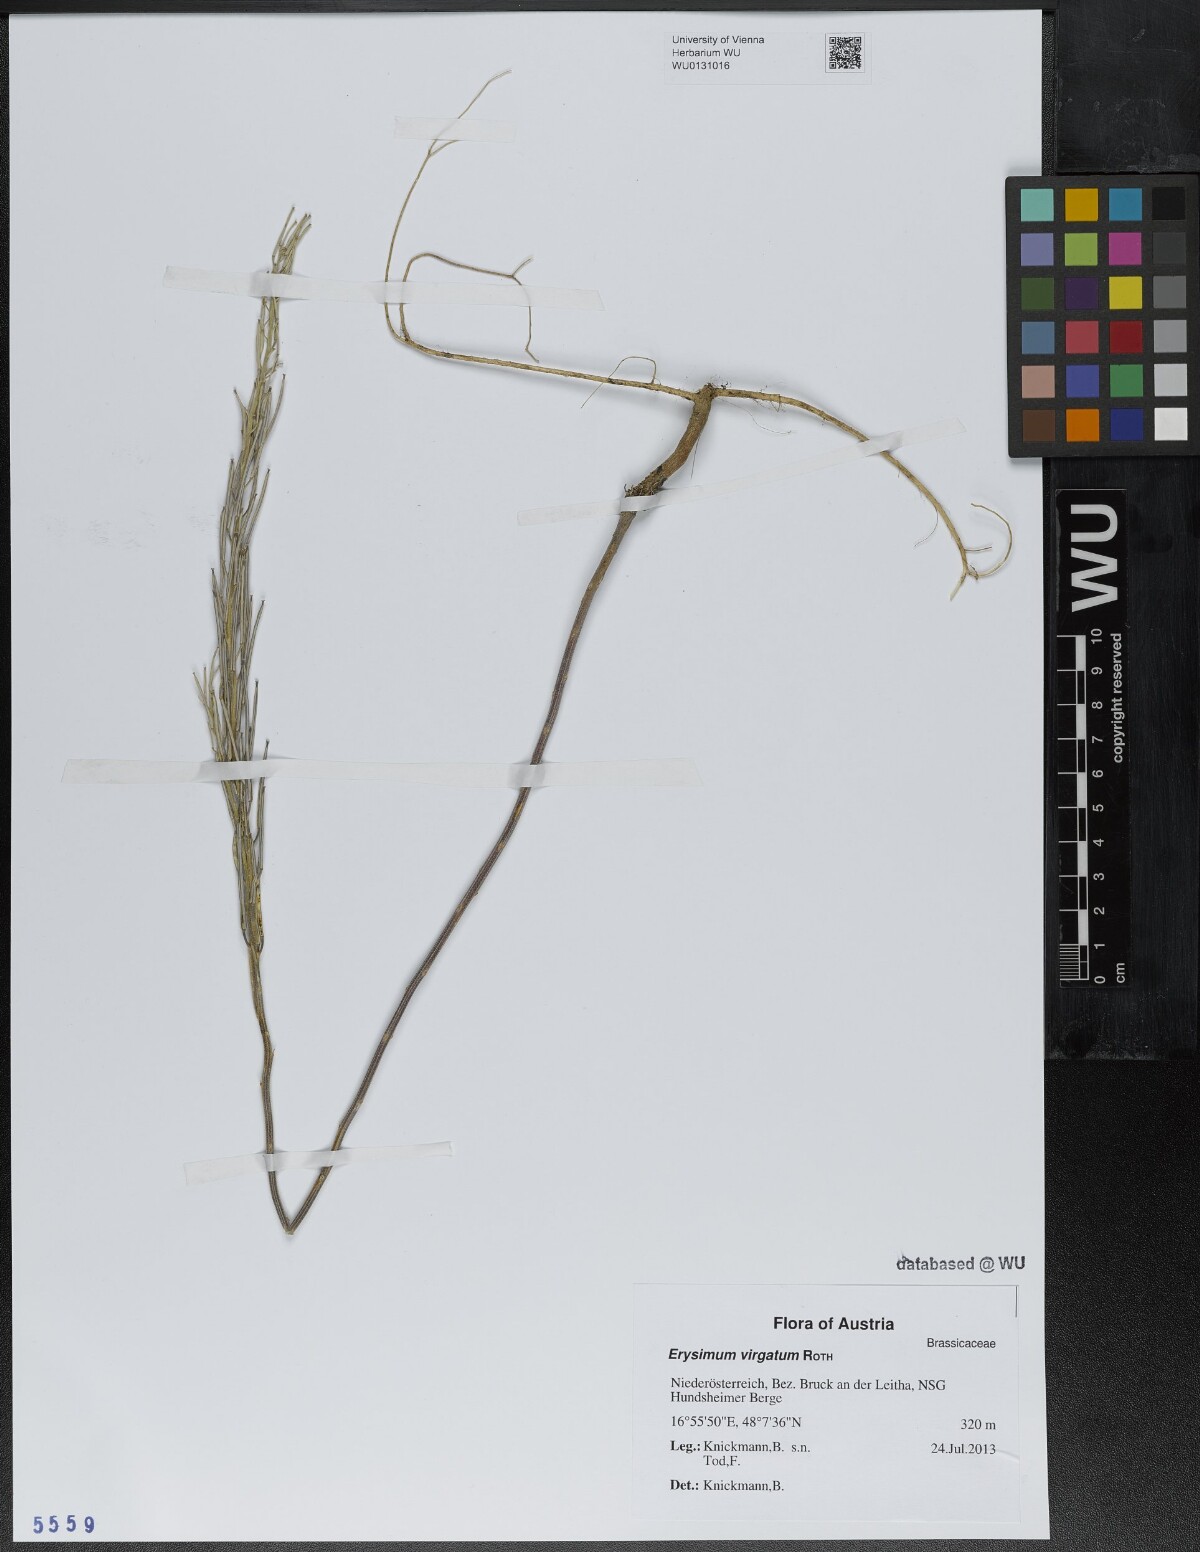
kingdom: Plantae
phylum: Tracheophyta
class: Magnoliopsida
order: Brassicales
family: Brassicaceae
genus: Erysimum
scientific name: Erysimum virgatum
